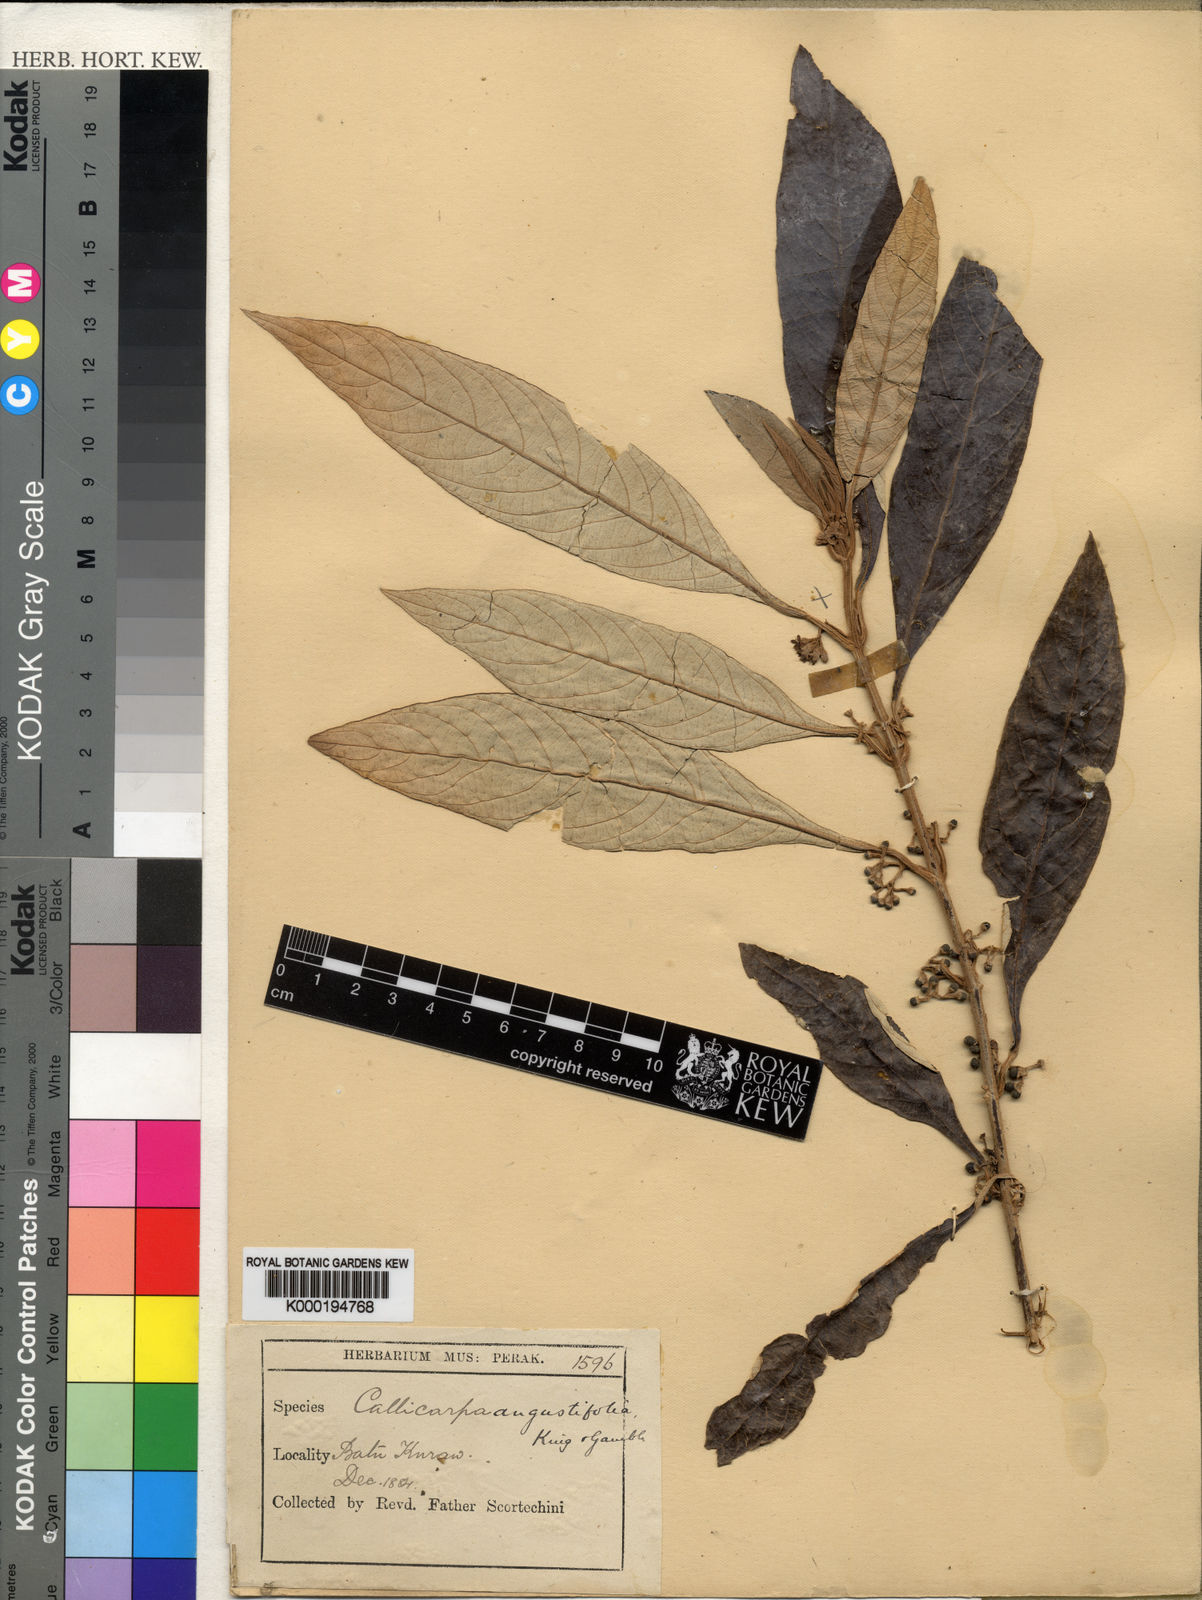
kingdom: Plantae
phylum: Tracheophyta
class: Magnoliopsida
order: Lamiales
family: Lamiaceae
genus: Callicarpa
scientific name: Callicarpa angustifolia
